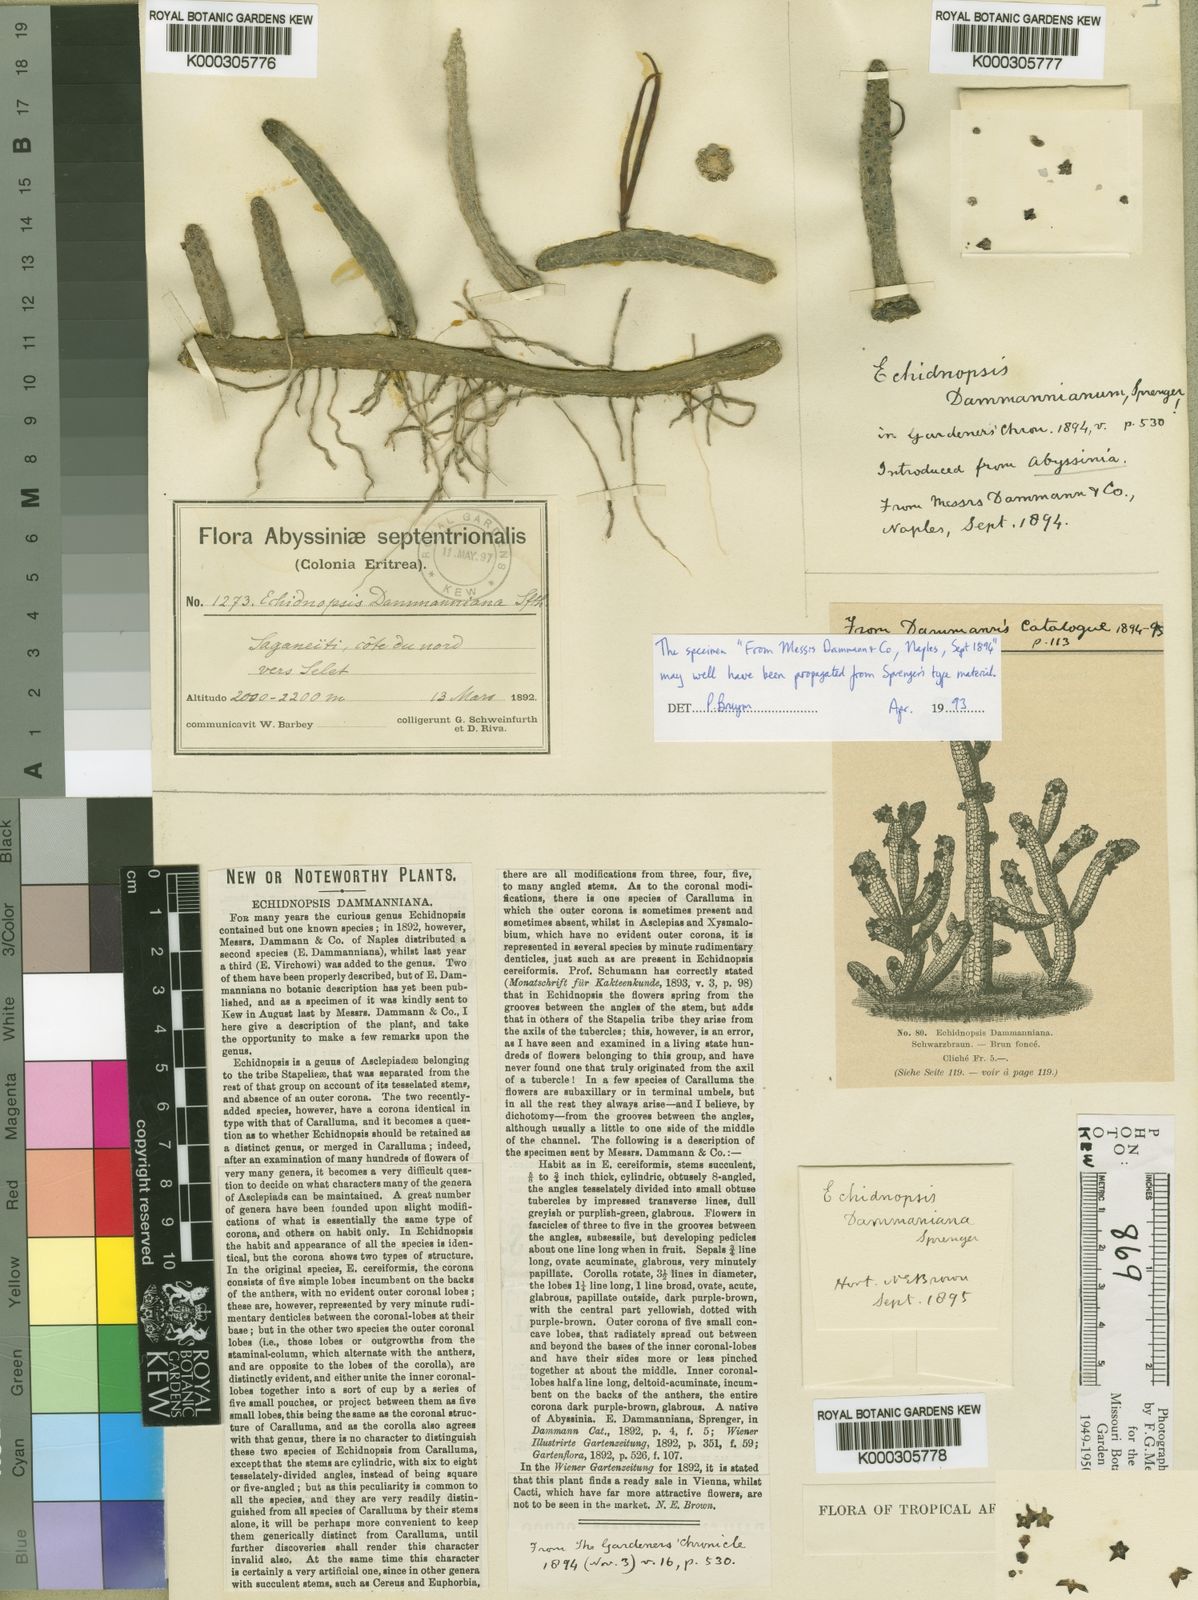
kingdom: Plantae
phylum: Tracheophyta
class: Magnoliopsida
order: Gentianales
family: Apocynaceae
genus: Ceropegia
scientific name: Ceropegia dammanniana
